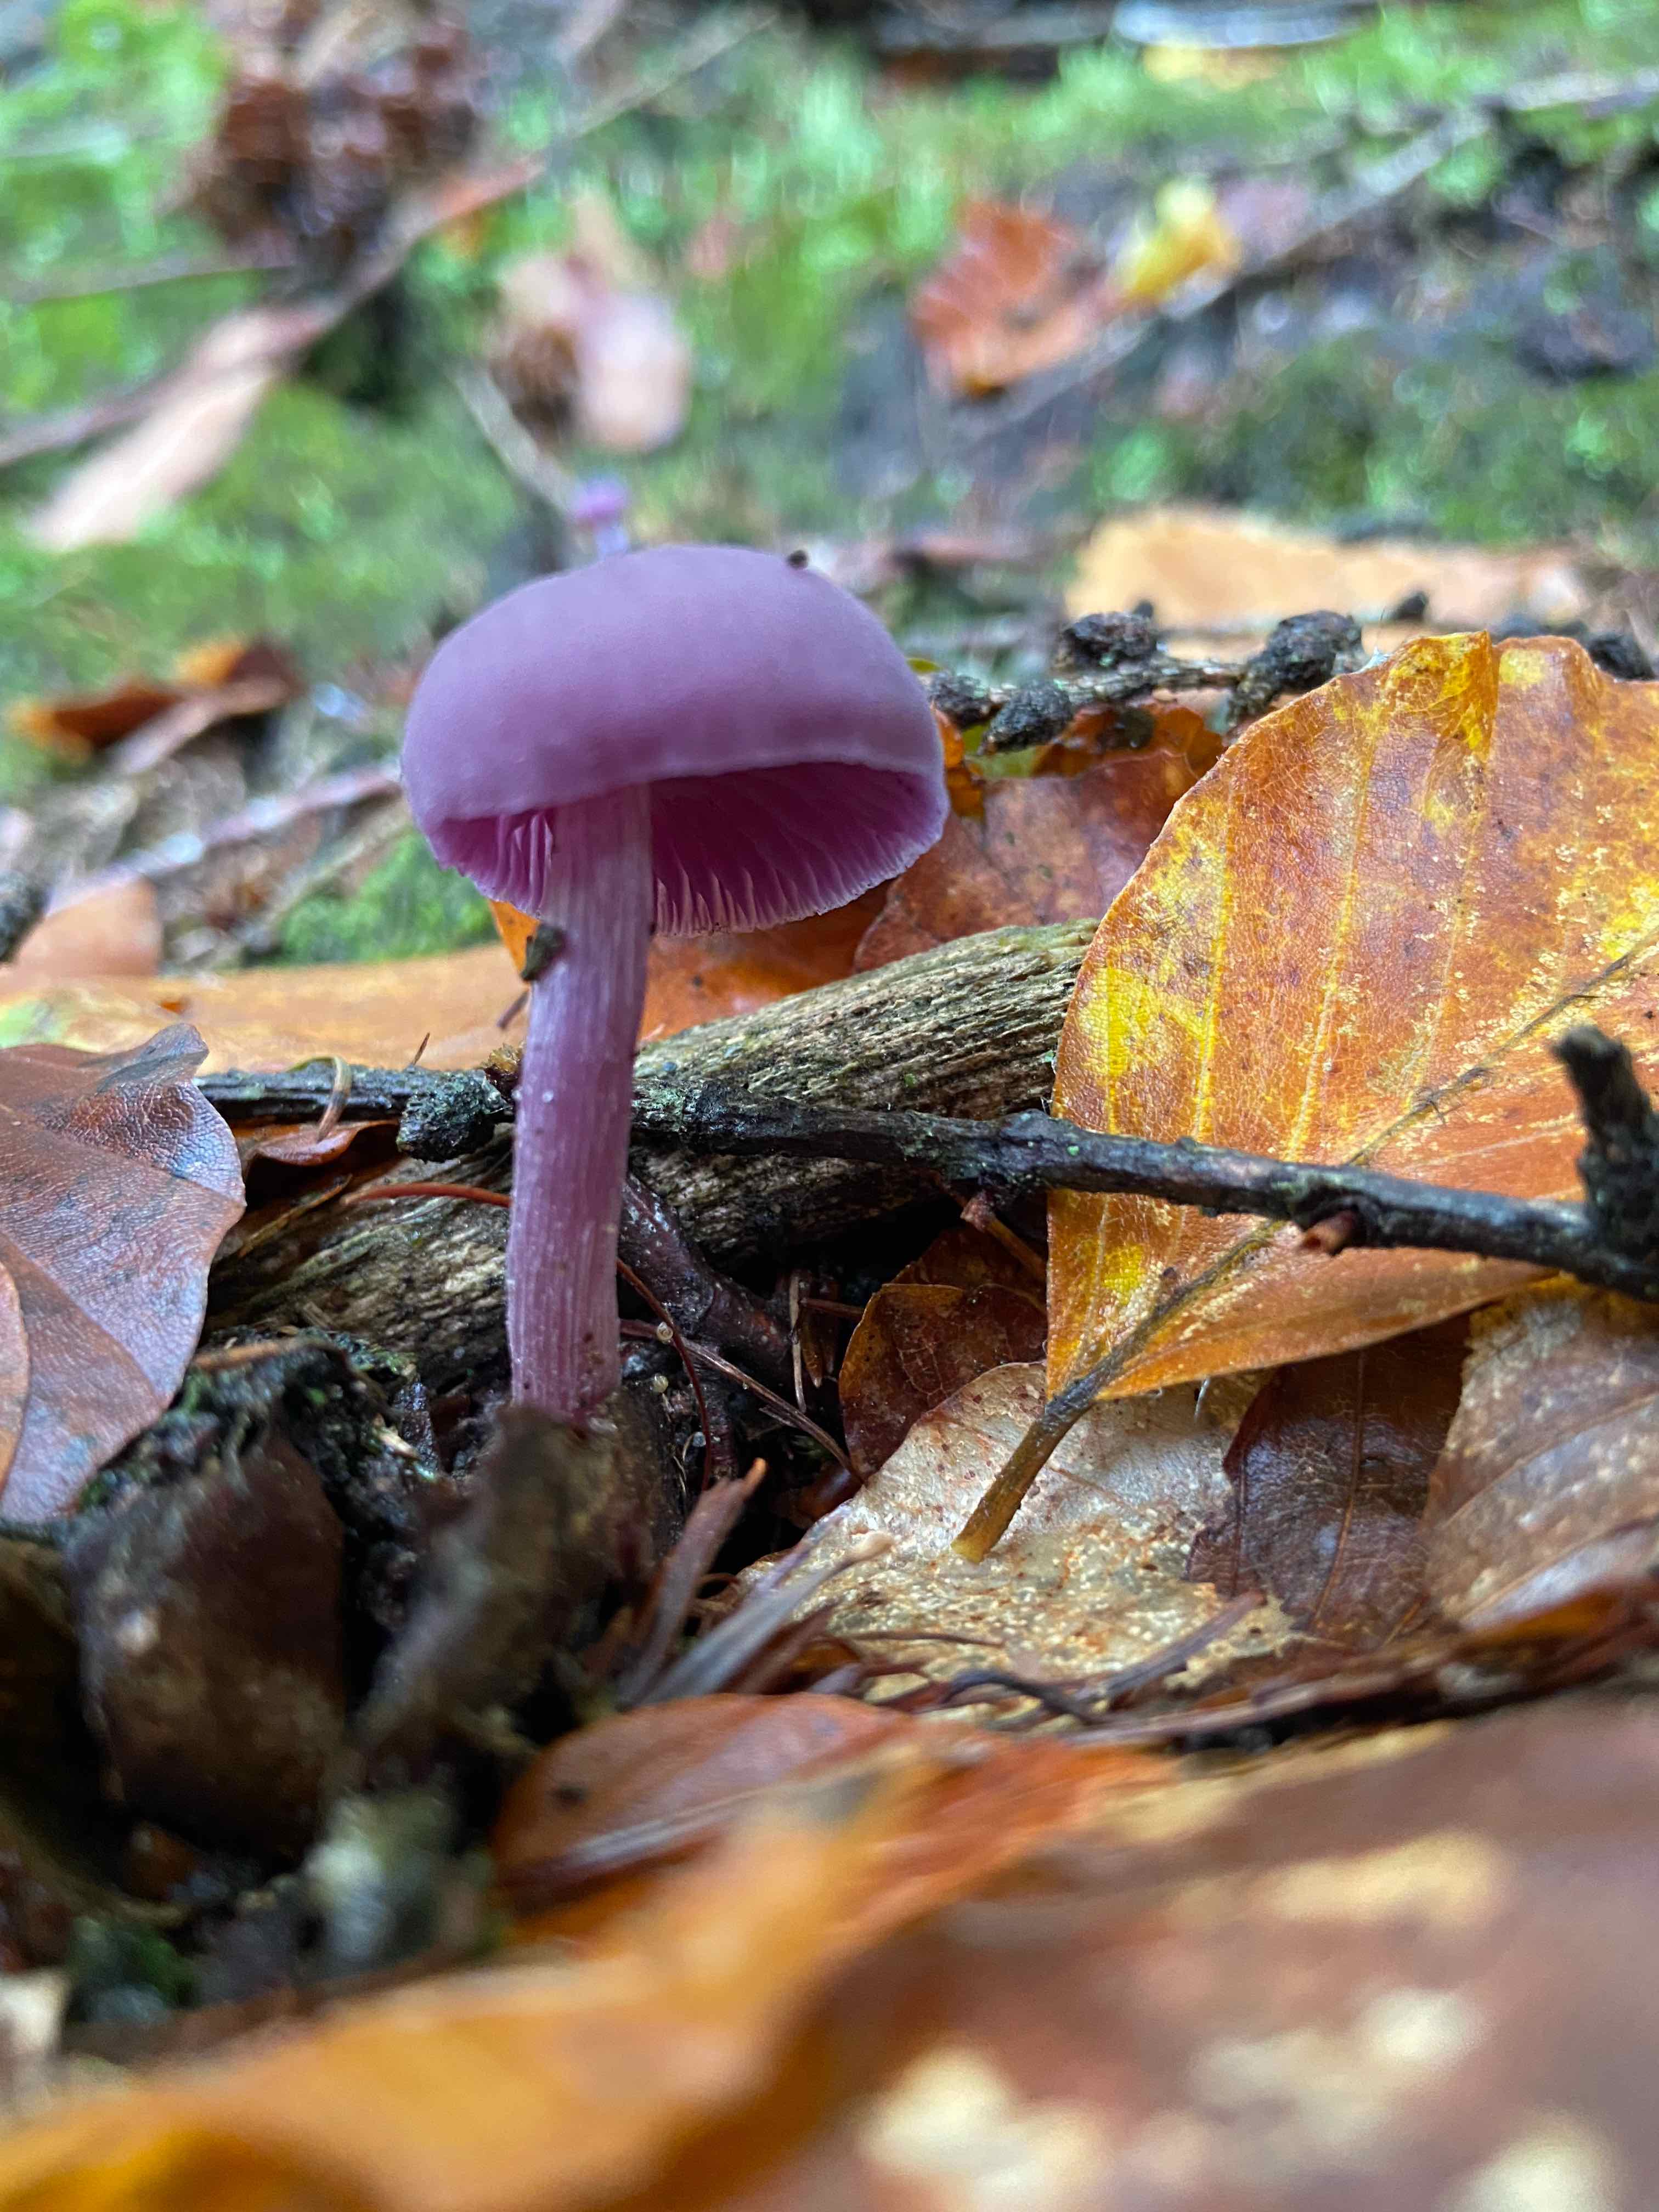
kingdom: Fungi
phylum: Basidiomycota
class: Agaricomycetes
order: Agaricales
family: Hydnangiaceae
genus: Laccaria
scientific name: Laccaria amethystina
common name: violet ametysthat
